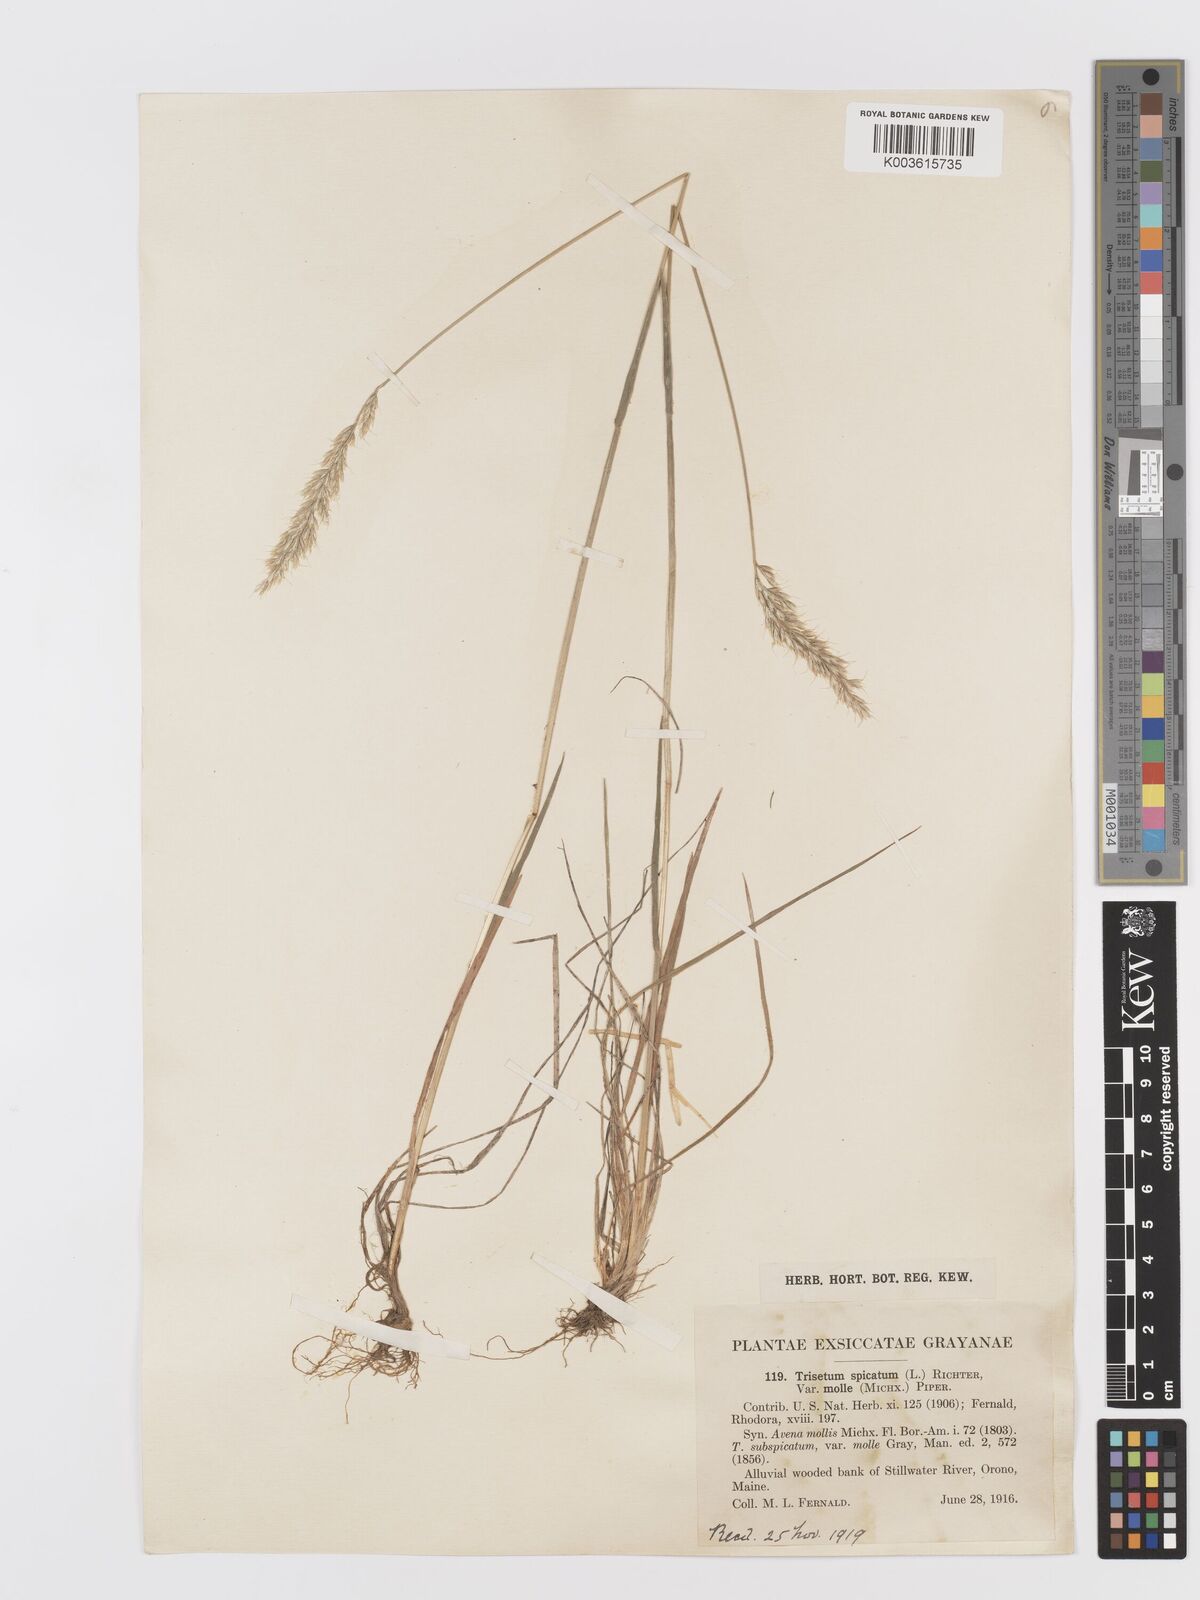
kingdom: Plantae
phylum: Tracheophyta
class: Liliopsida
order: Poales
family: Poaceae
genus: Koeleria
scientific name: Koeleria spicata
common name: Mountain trisetum
